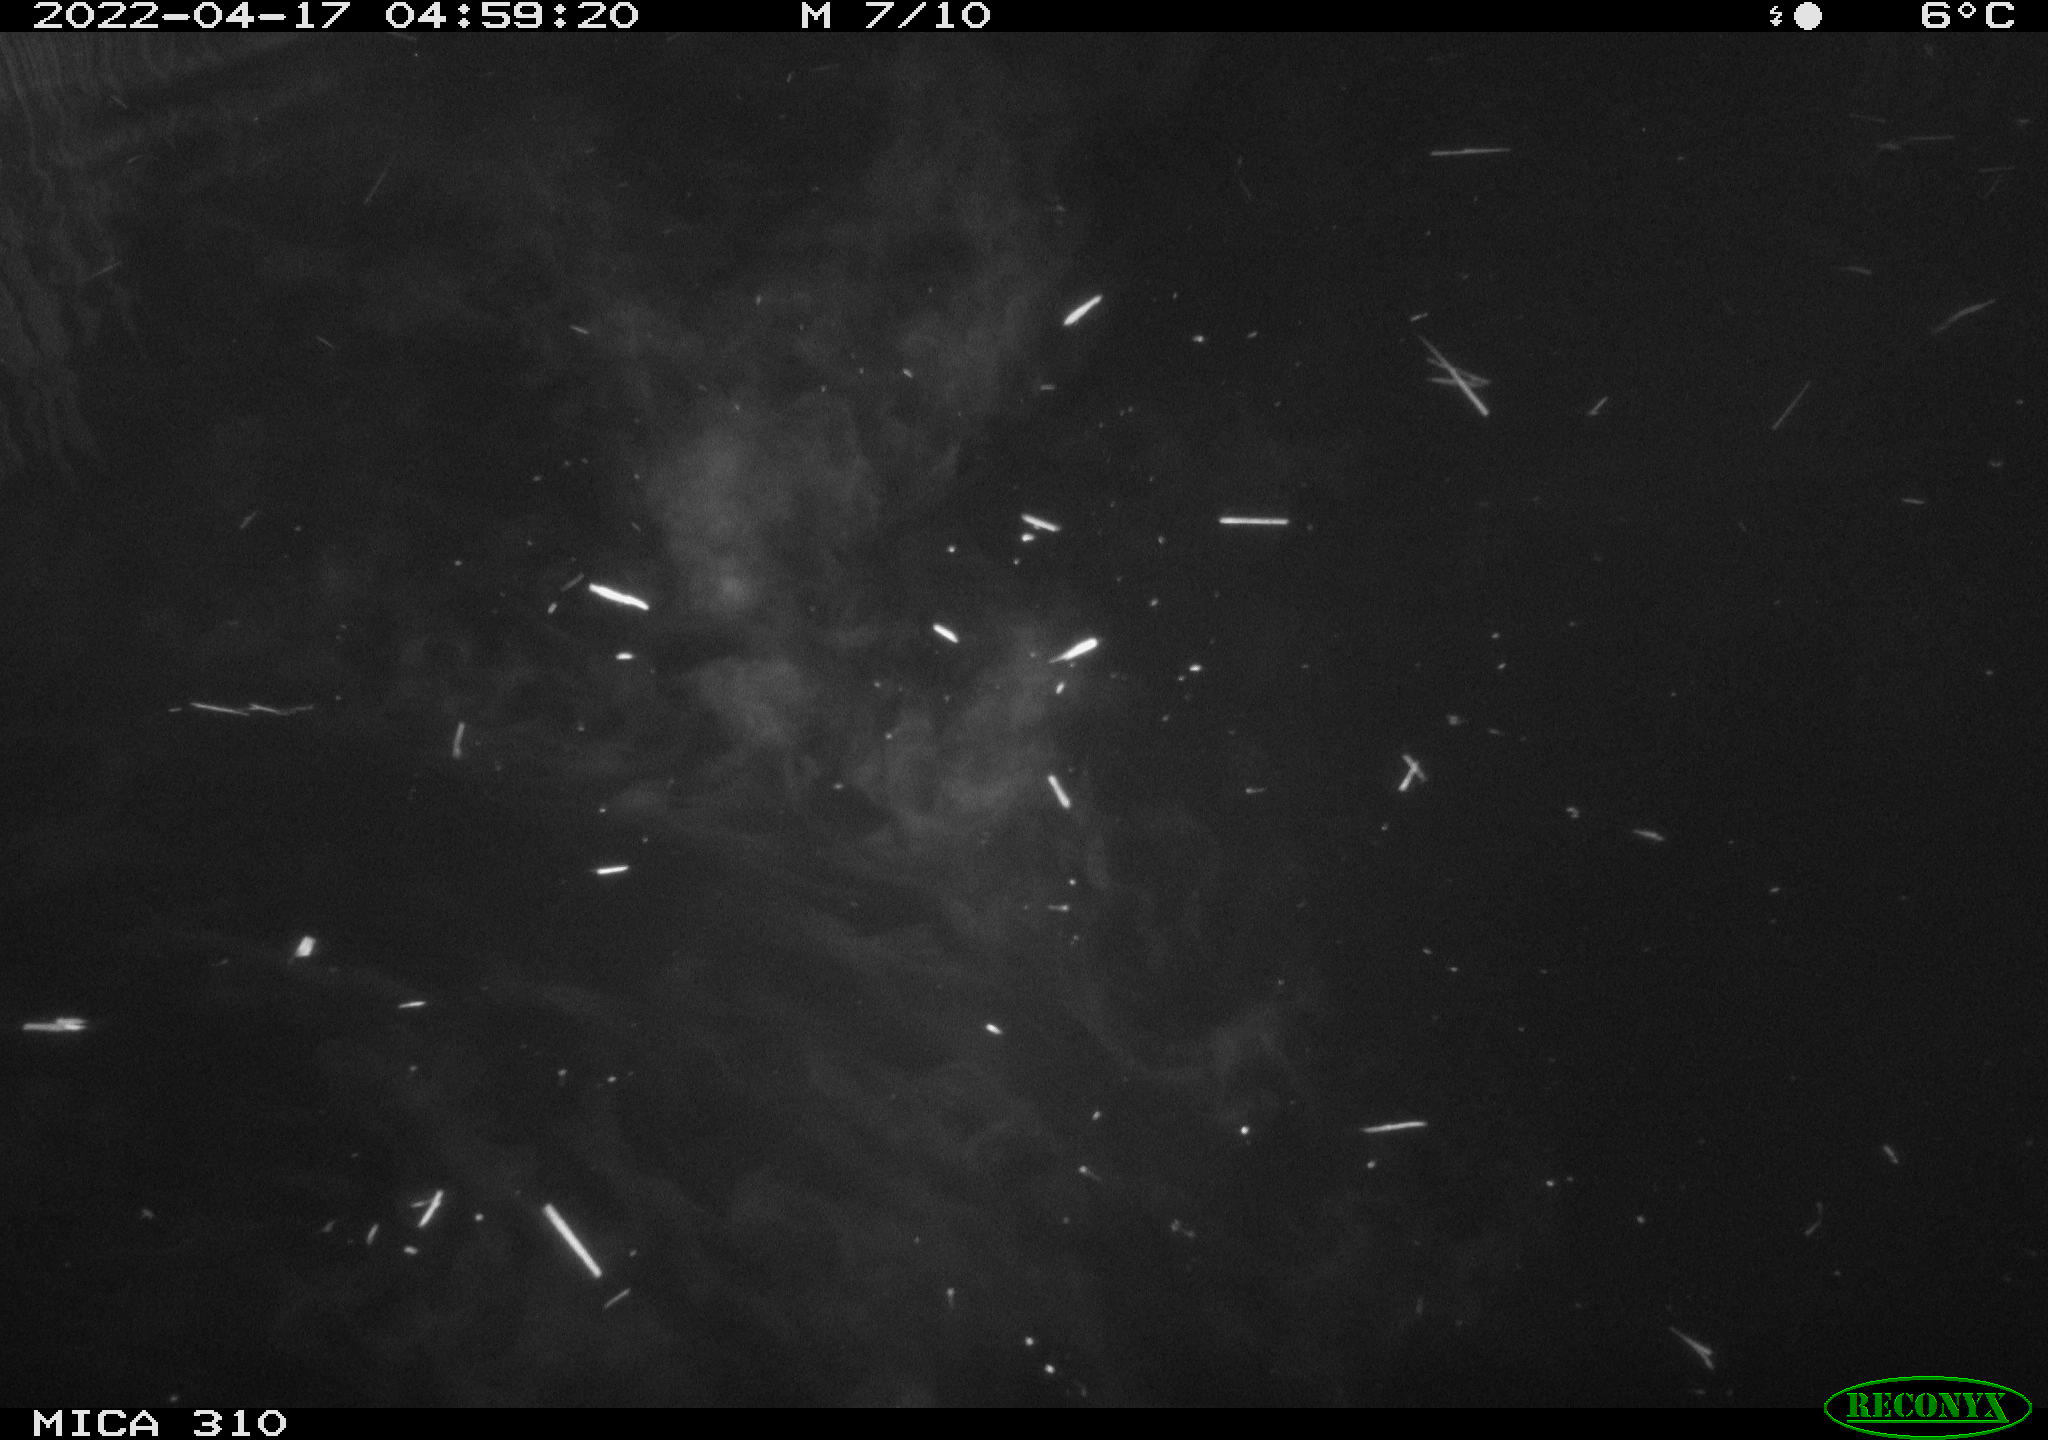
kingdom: Animalia
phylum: Chordata
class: Aves
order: Anseriformes
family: Anatidae
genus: Anas
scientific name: Anas platyrhynchos
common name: Mallard
